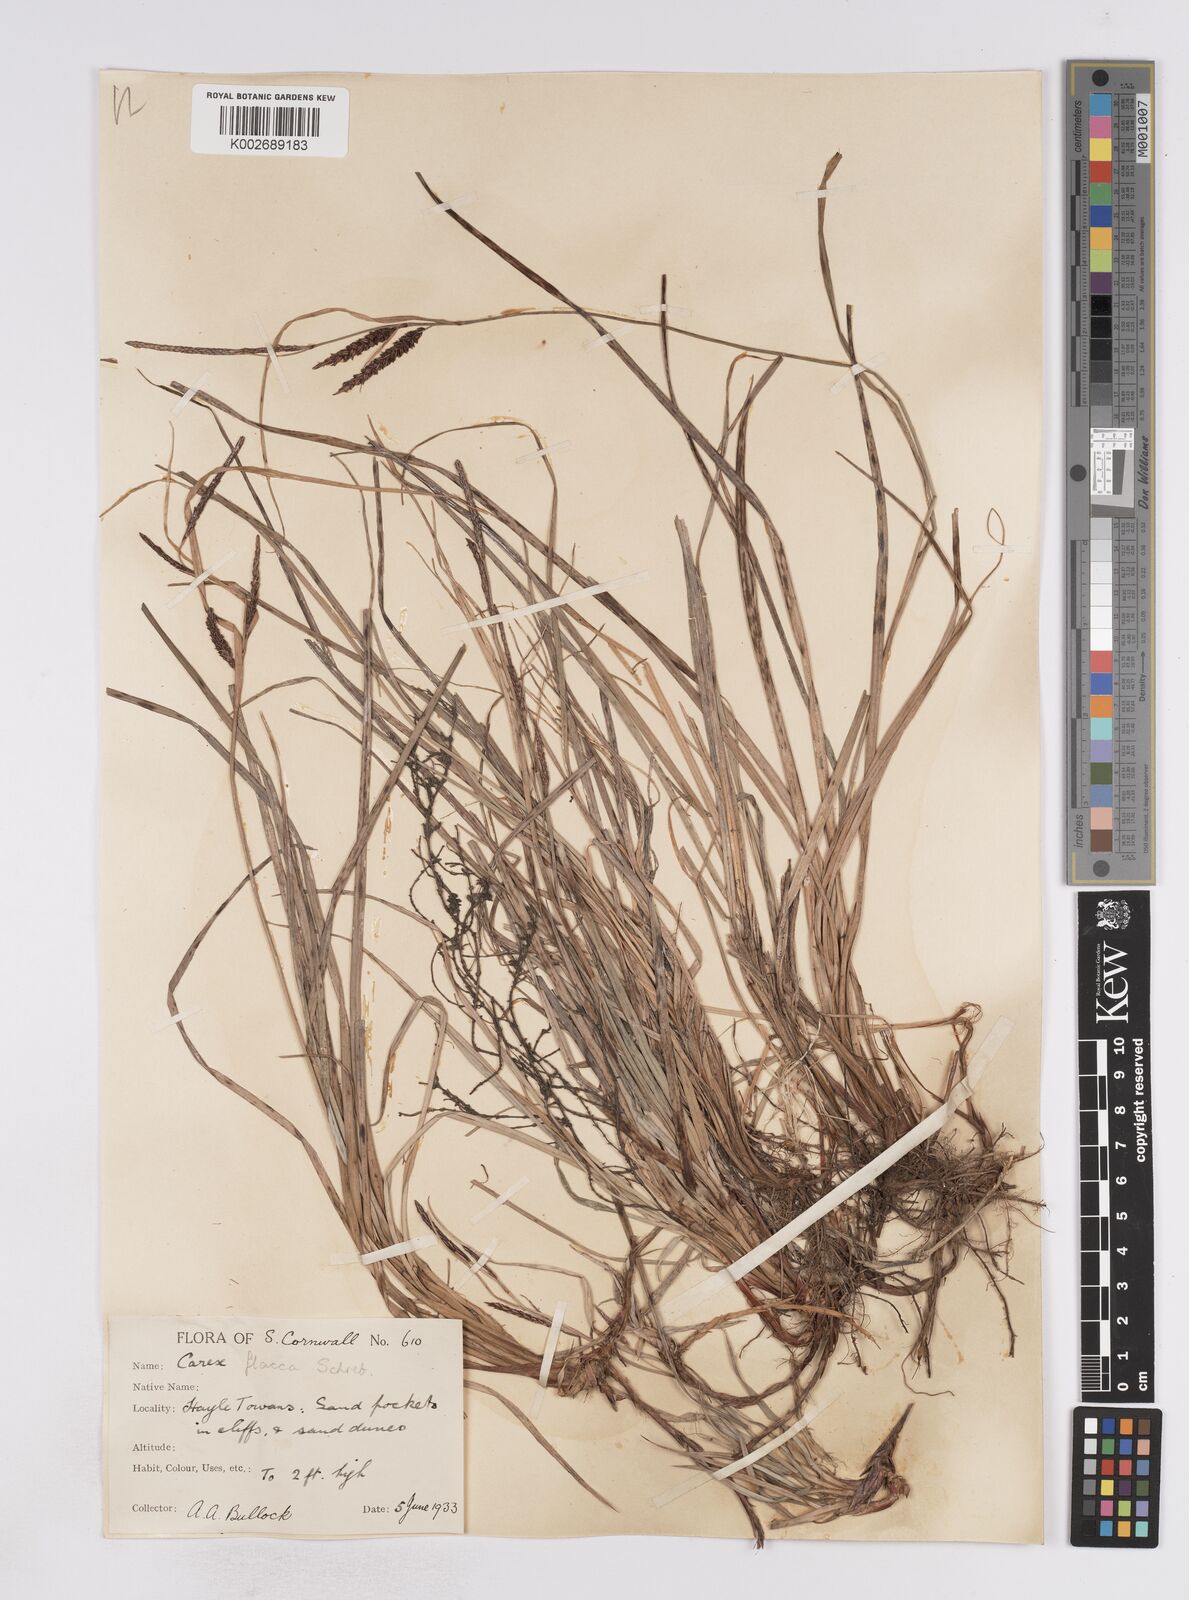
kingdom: Plantae
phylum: Tracheophyta
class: Liliopsida
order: Poales
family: Cyperaceae
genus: Carex
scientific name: Carex flacca
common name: Glaucous sedge
